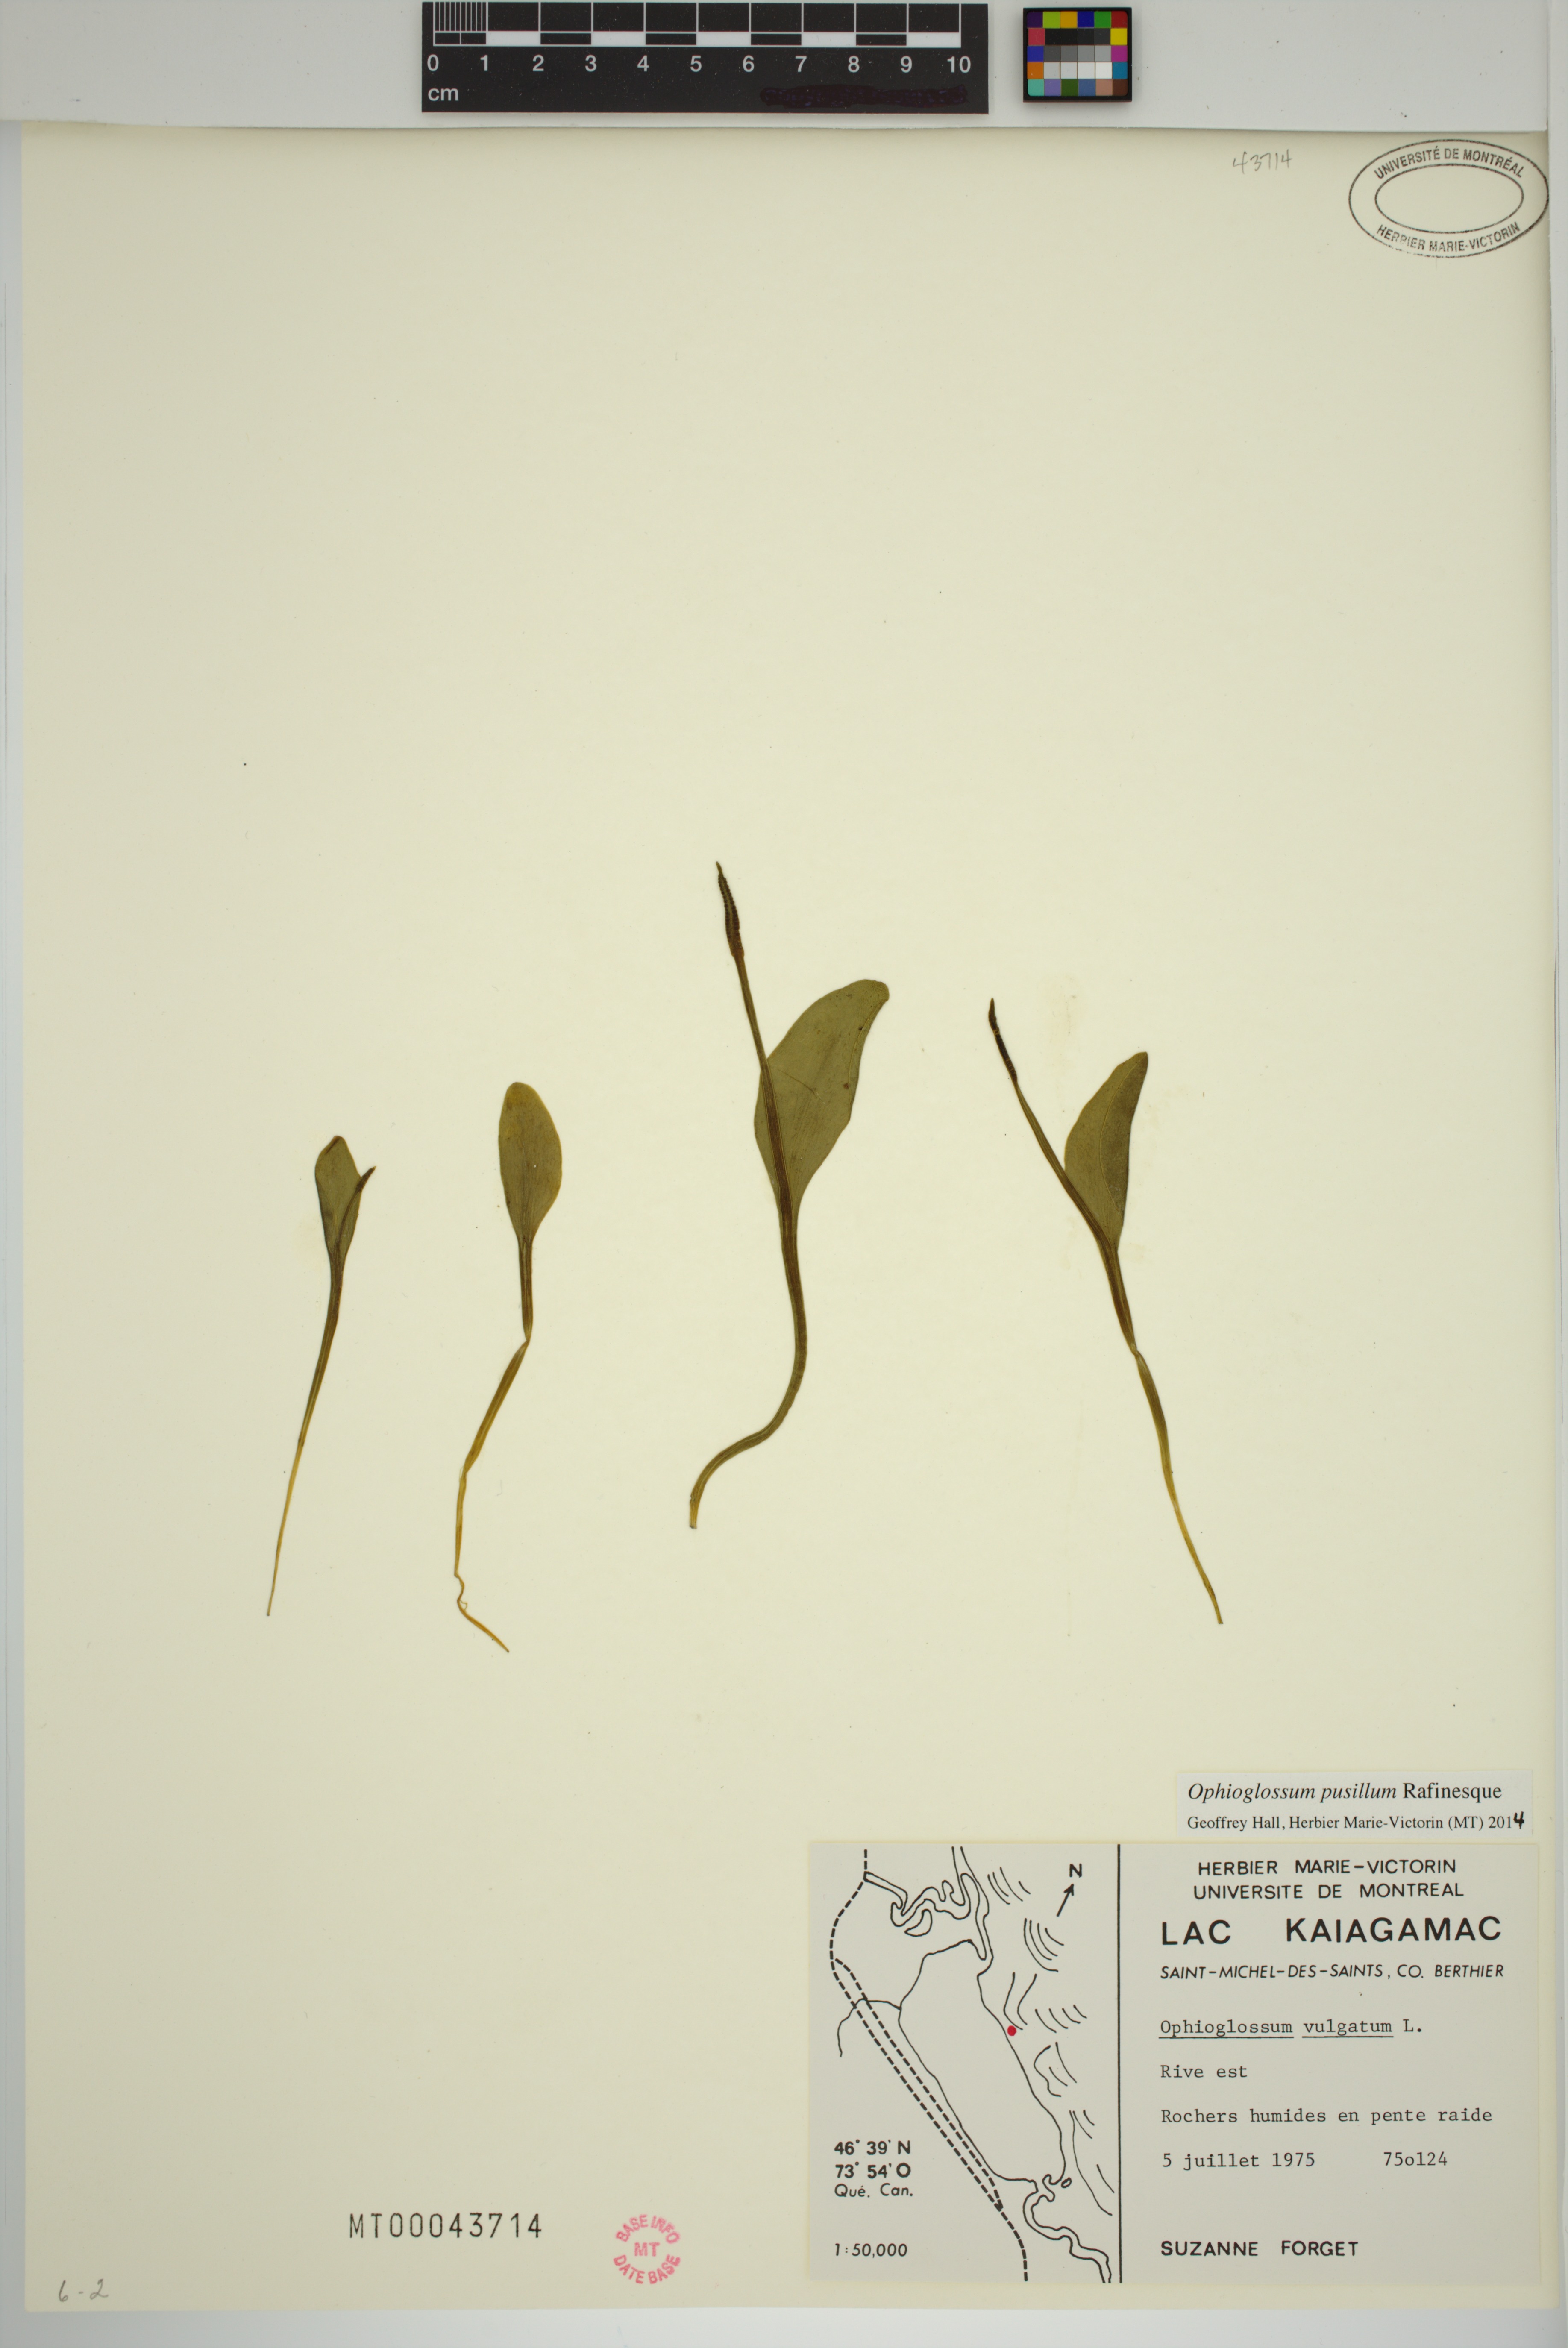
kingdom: Plantae
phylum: Tracheophyta
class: Polypodiopsida
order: Ophioglossales
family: Ophioglossaceae
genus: Ophioglossum
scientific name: Ophioglossum pusillum
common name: Northern adder's-tongue
